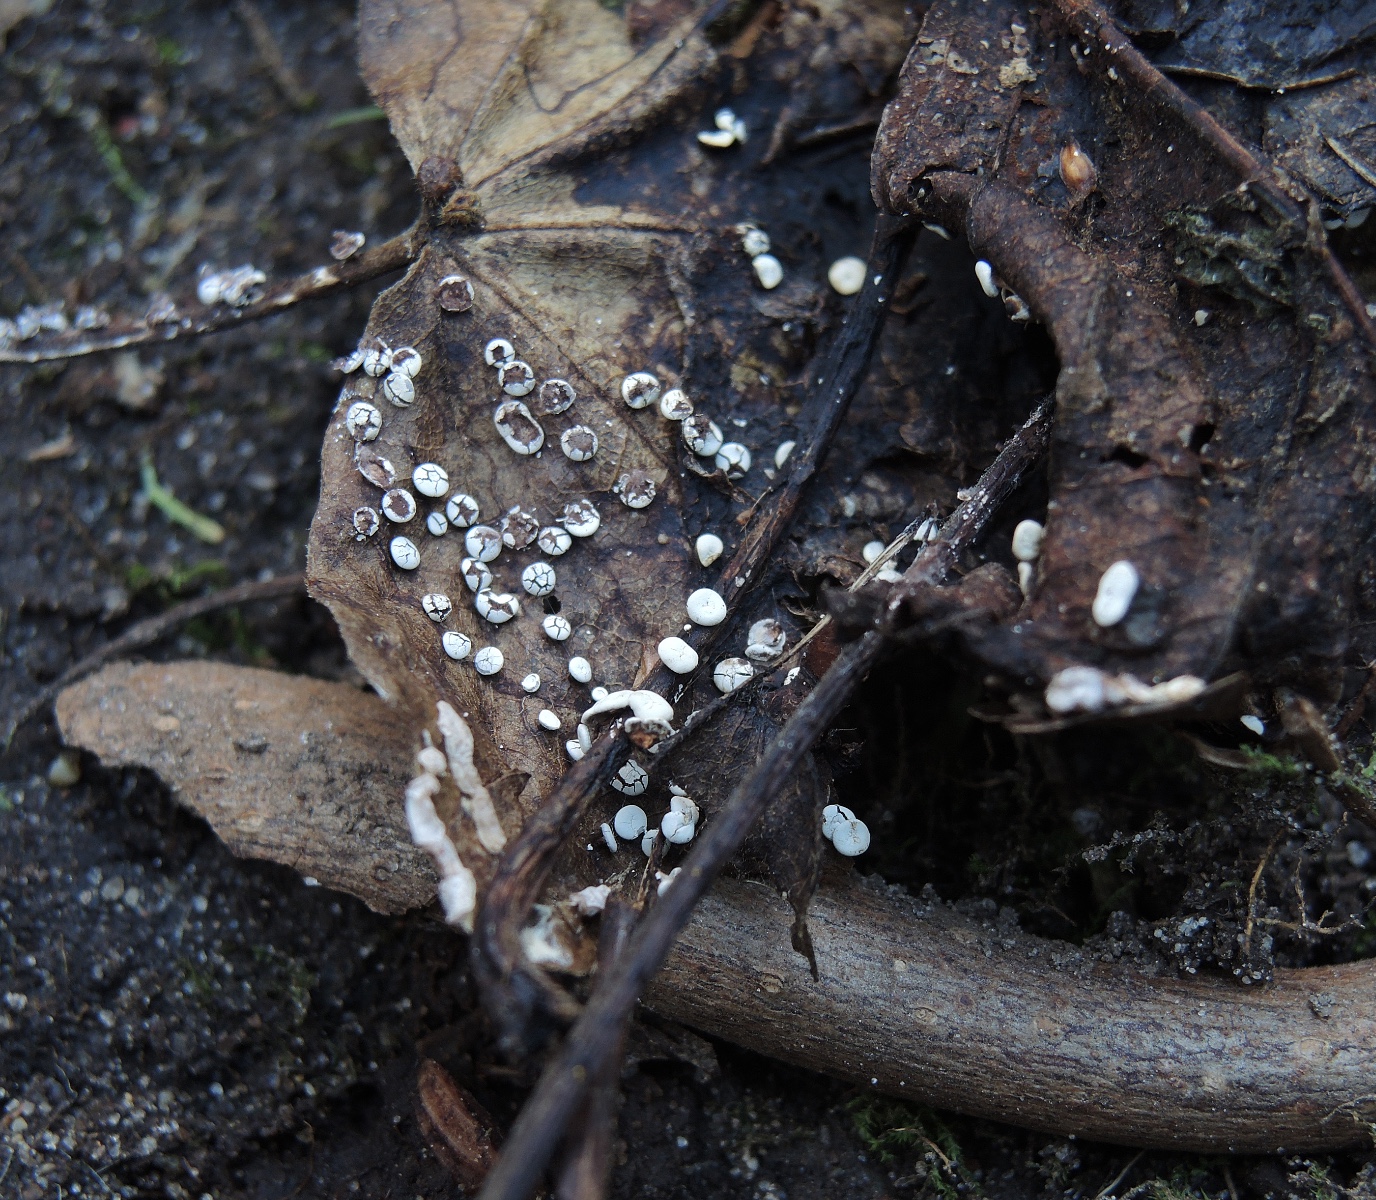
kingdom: Protozoa
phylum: Mycetozoa
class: Myxomycetes
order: Physarales
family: Didymiaceae
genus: Diderma
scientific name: Diderma hemisphaericum
